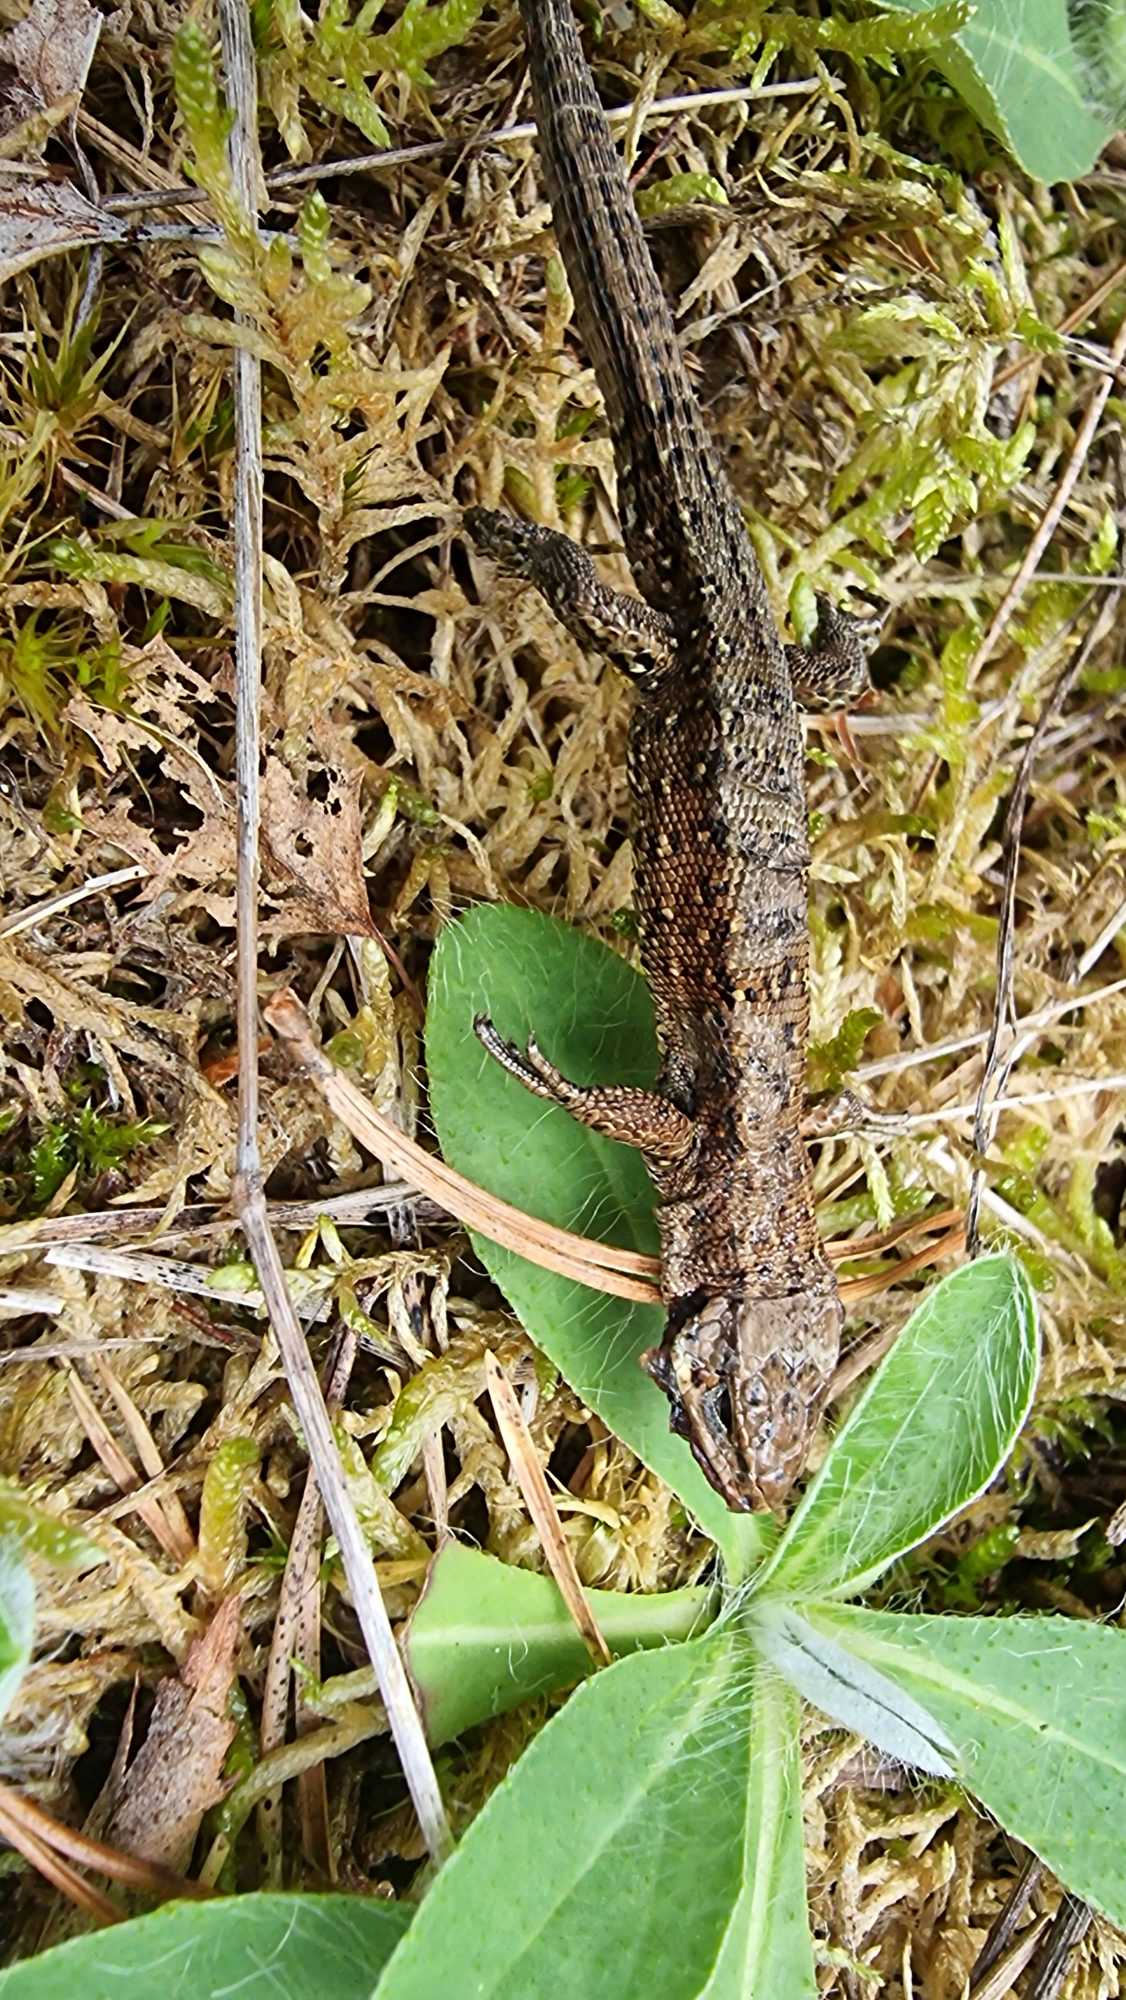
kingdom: Animalia
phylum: Chordata
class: Squamata
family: Lacertidae
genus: Zootoca
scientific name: Zootoca vivipara
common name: Skovfirben
